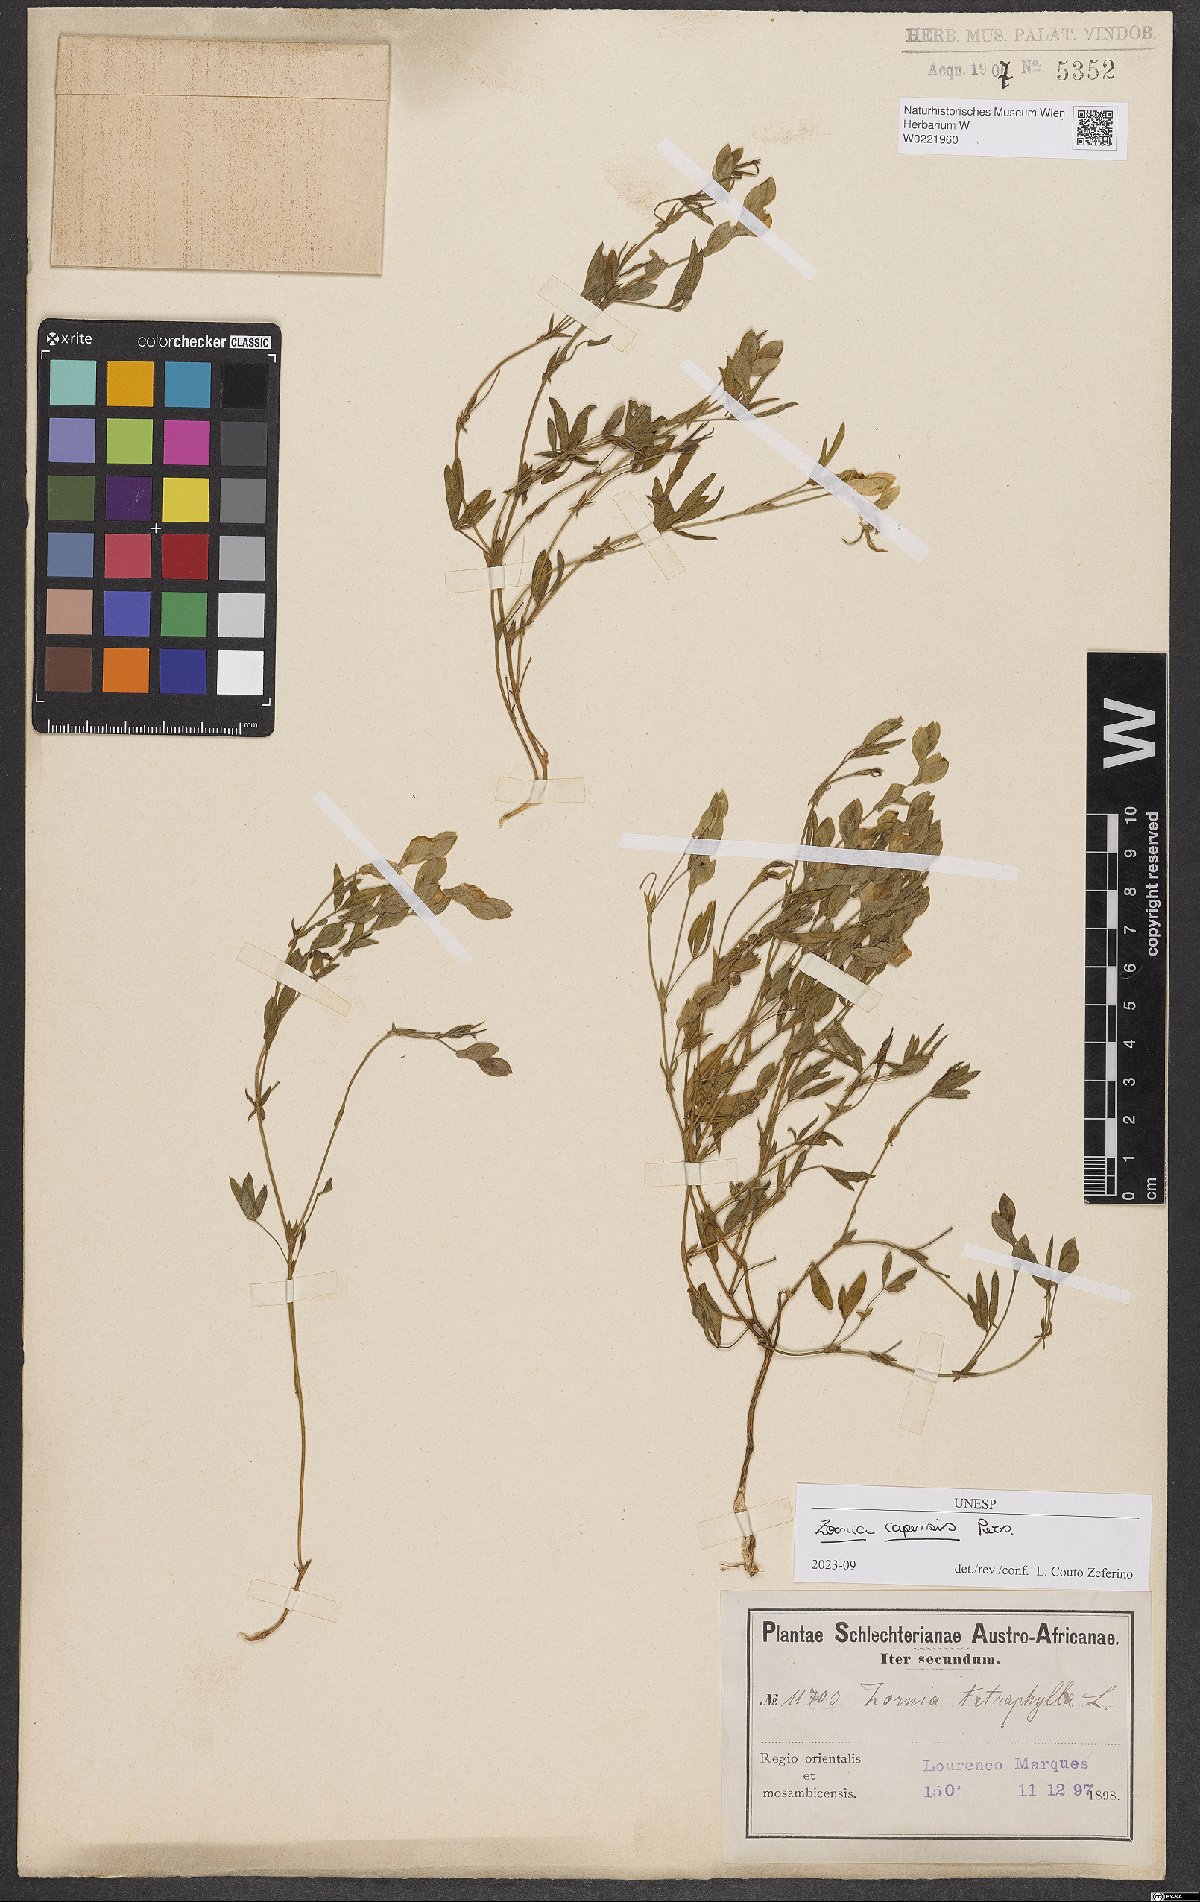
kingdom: Plantae
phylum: Tracheophyta
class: Magnoliopsida
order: Fabales
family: Fabaceae
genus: Zornia
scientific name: Zornia capensis
